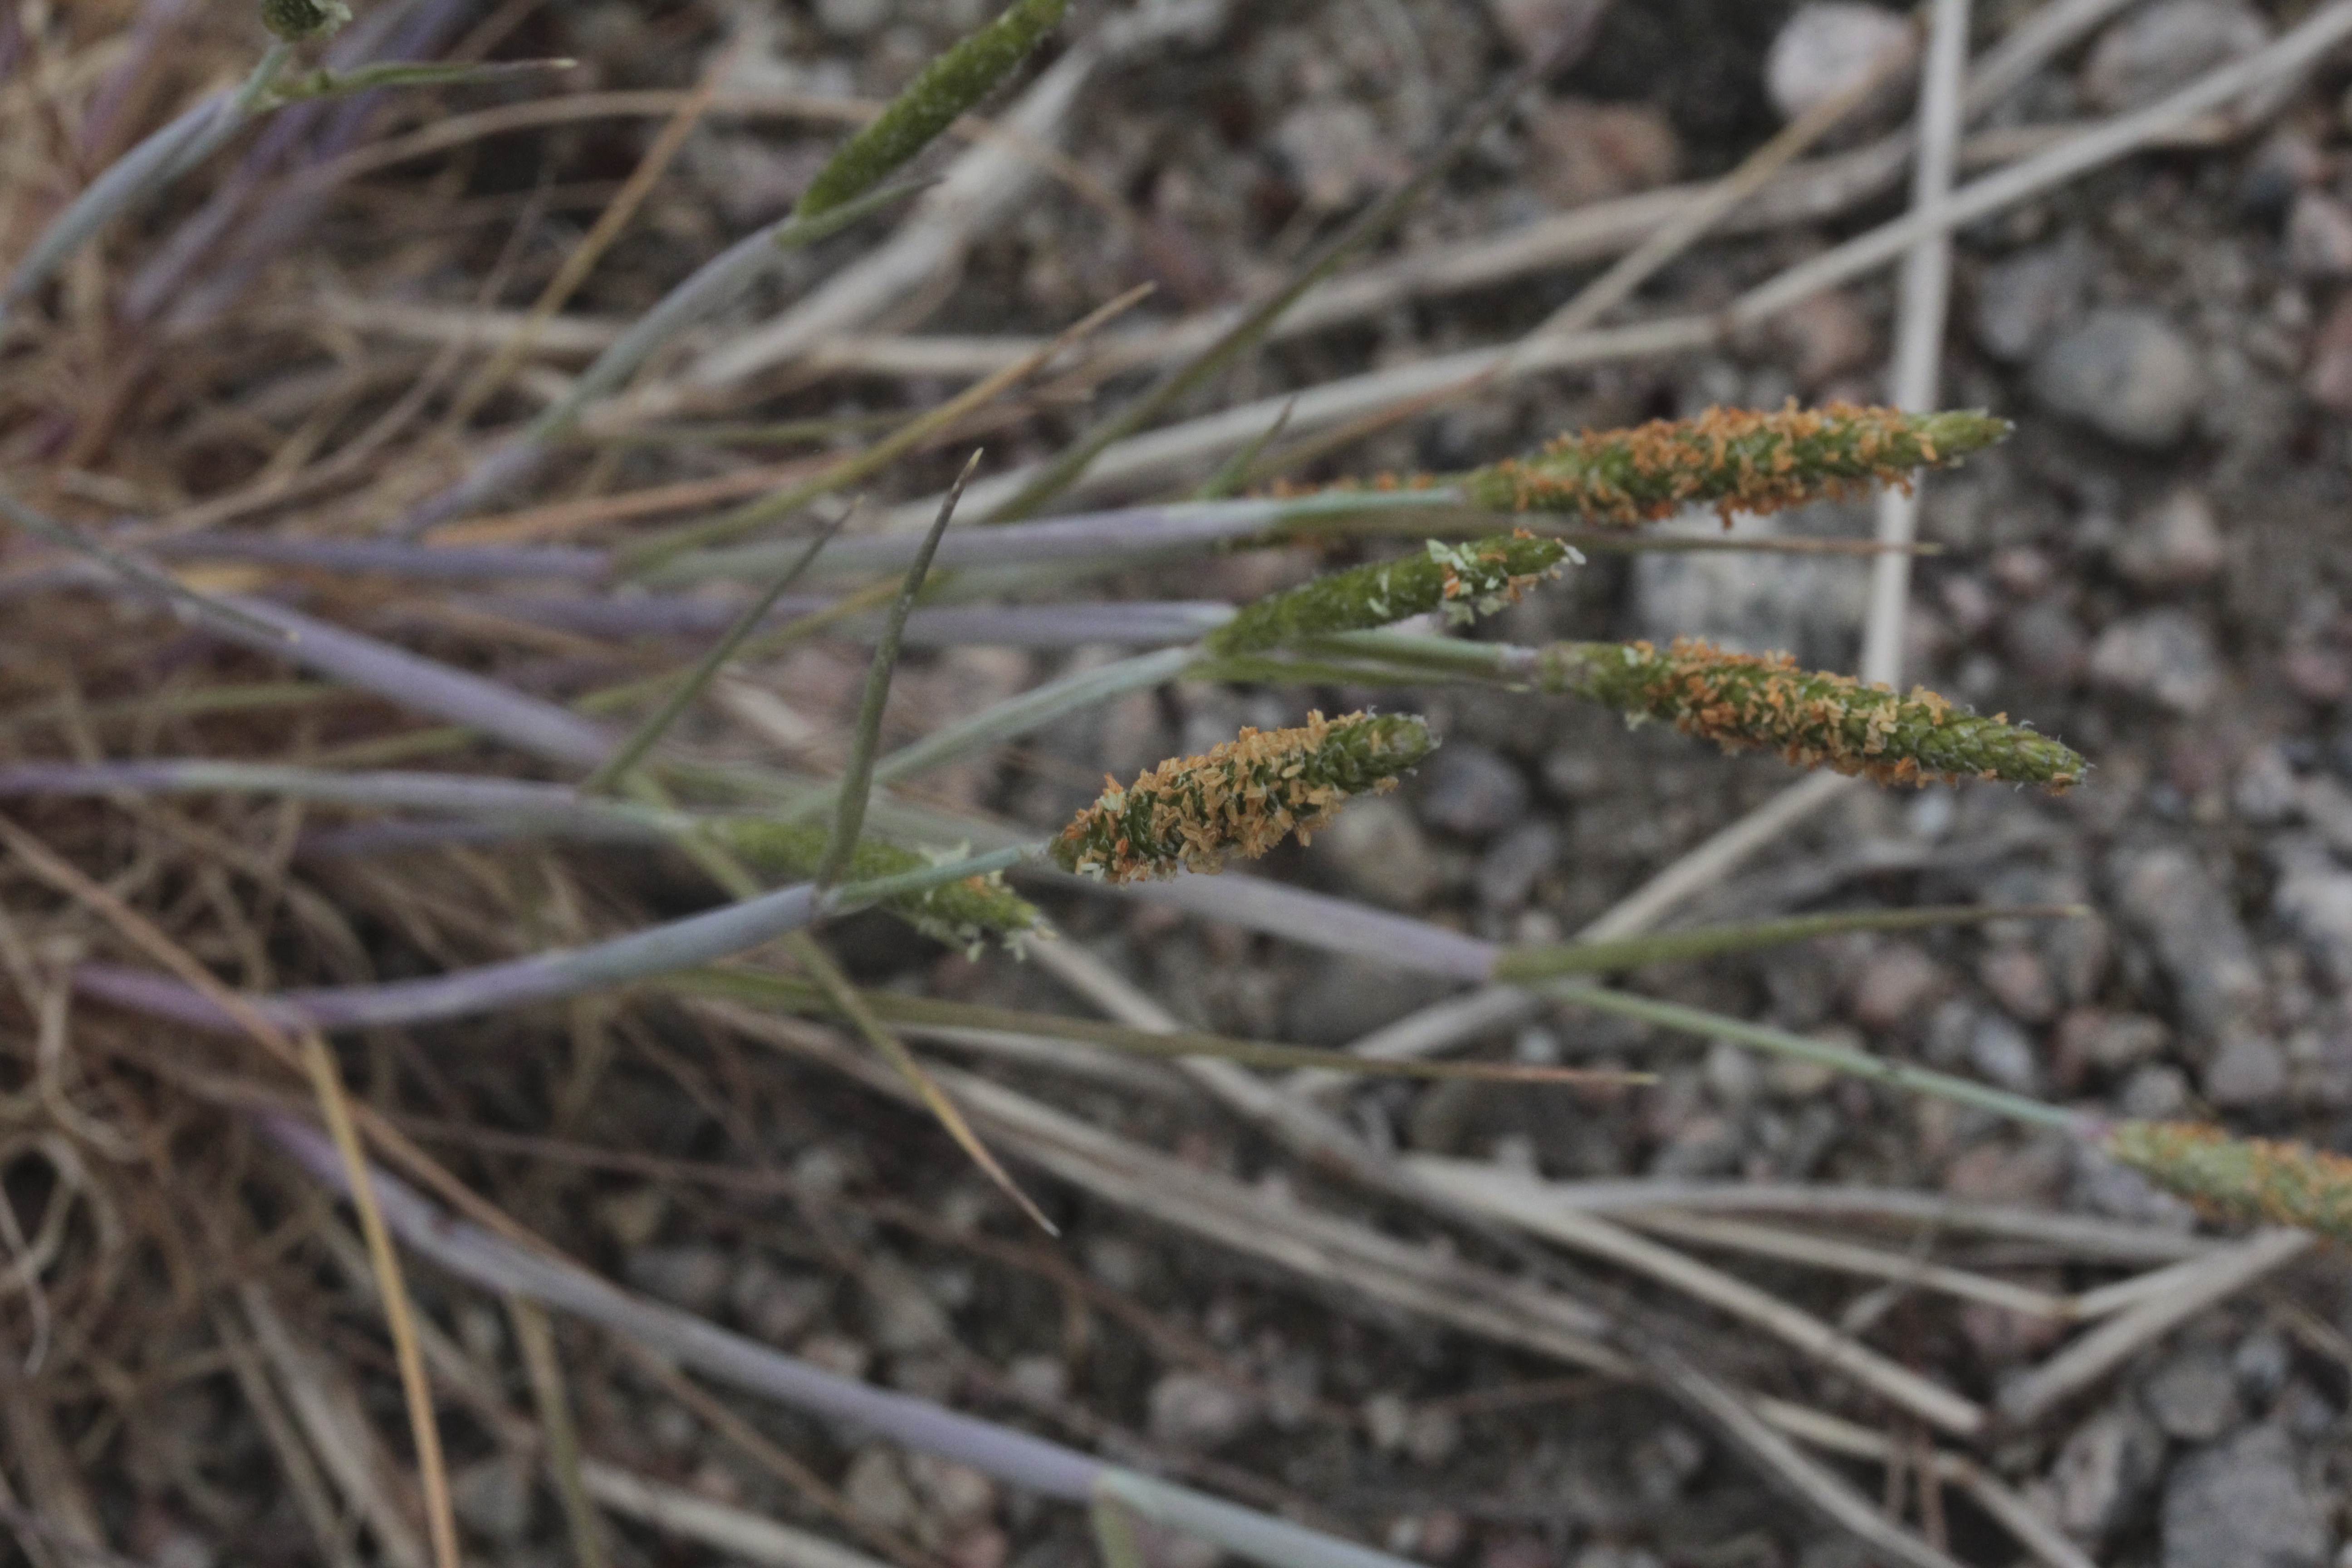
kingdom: Plantae
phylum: Tracheophyta
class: Liliopsida
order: Poales
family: Poaceae
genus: Alopecurus
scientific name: Alopecurus aequalis
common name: Orange foxtail
